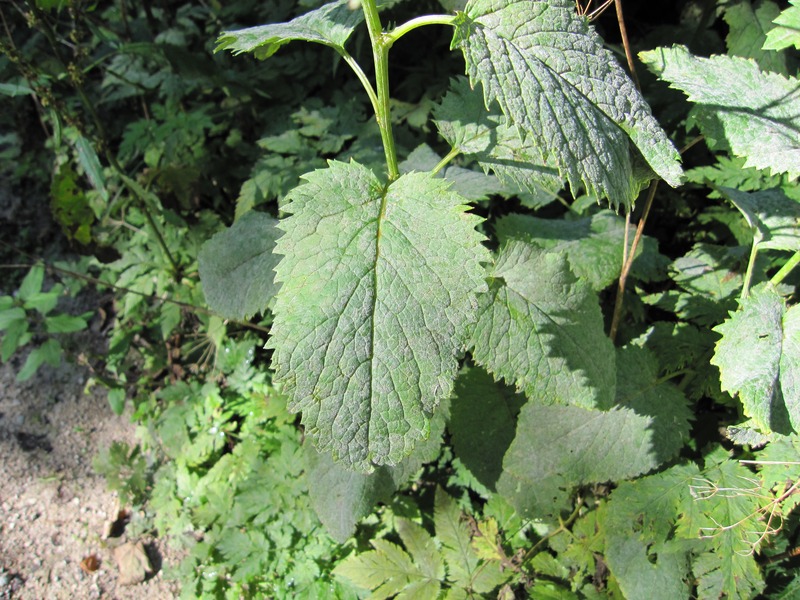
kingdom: Fungi
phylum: Ascomycota
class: Leotiomycetes
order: Helotiales
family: Erysiphaceae
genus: Podosphaera
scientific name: Podosphaera fusca
